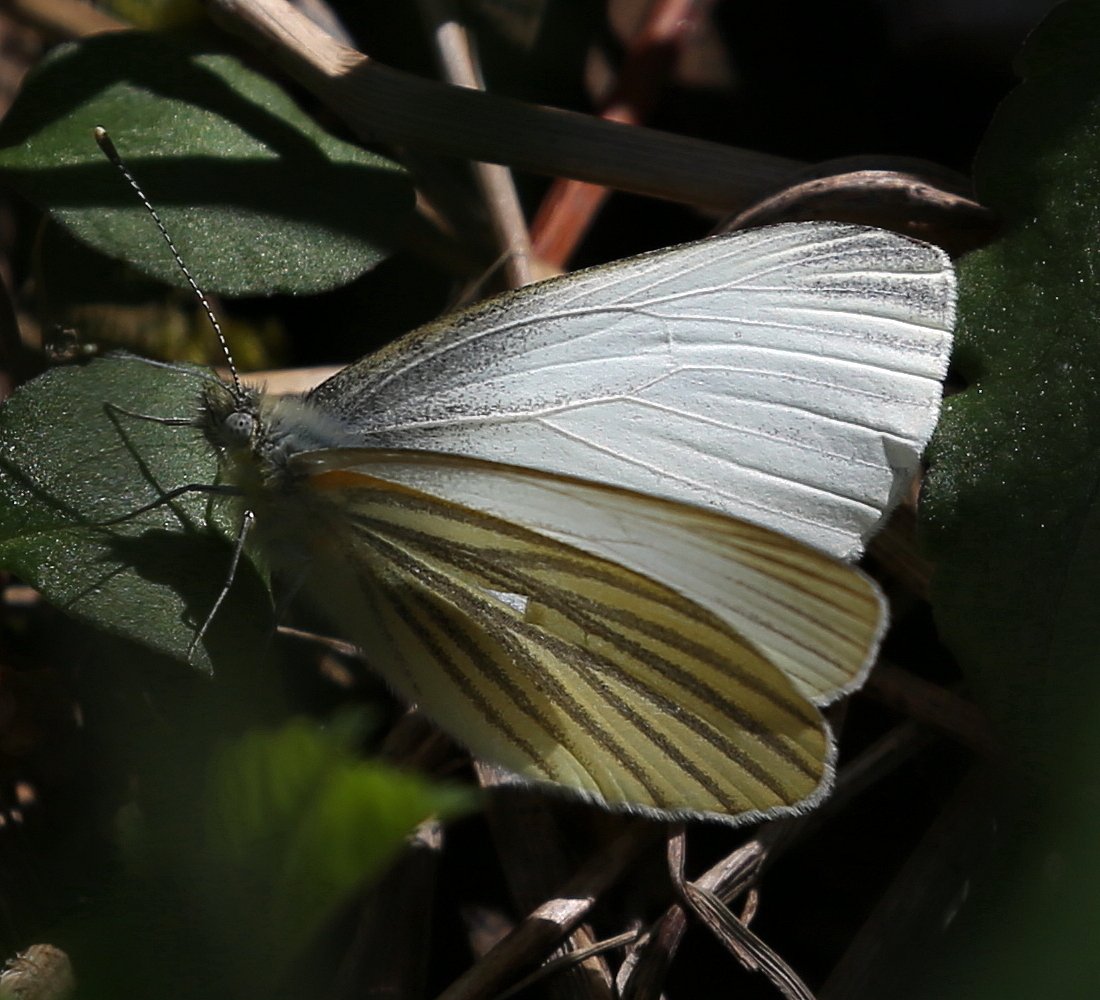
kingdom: Animalia
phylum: Arthropoda
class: Insecta
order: Lepidoptera
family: Pieridae
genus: Pieris
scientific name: Pieris oleracea
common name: Mustard White
